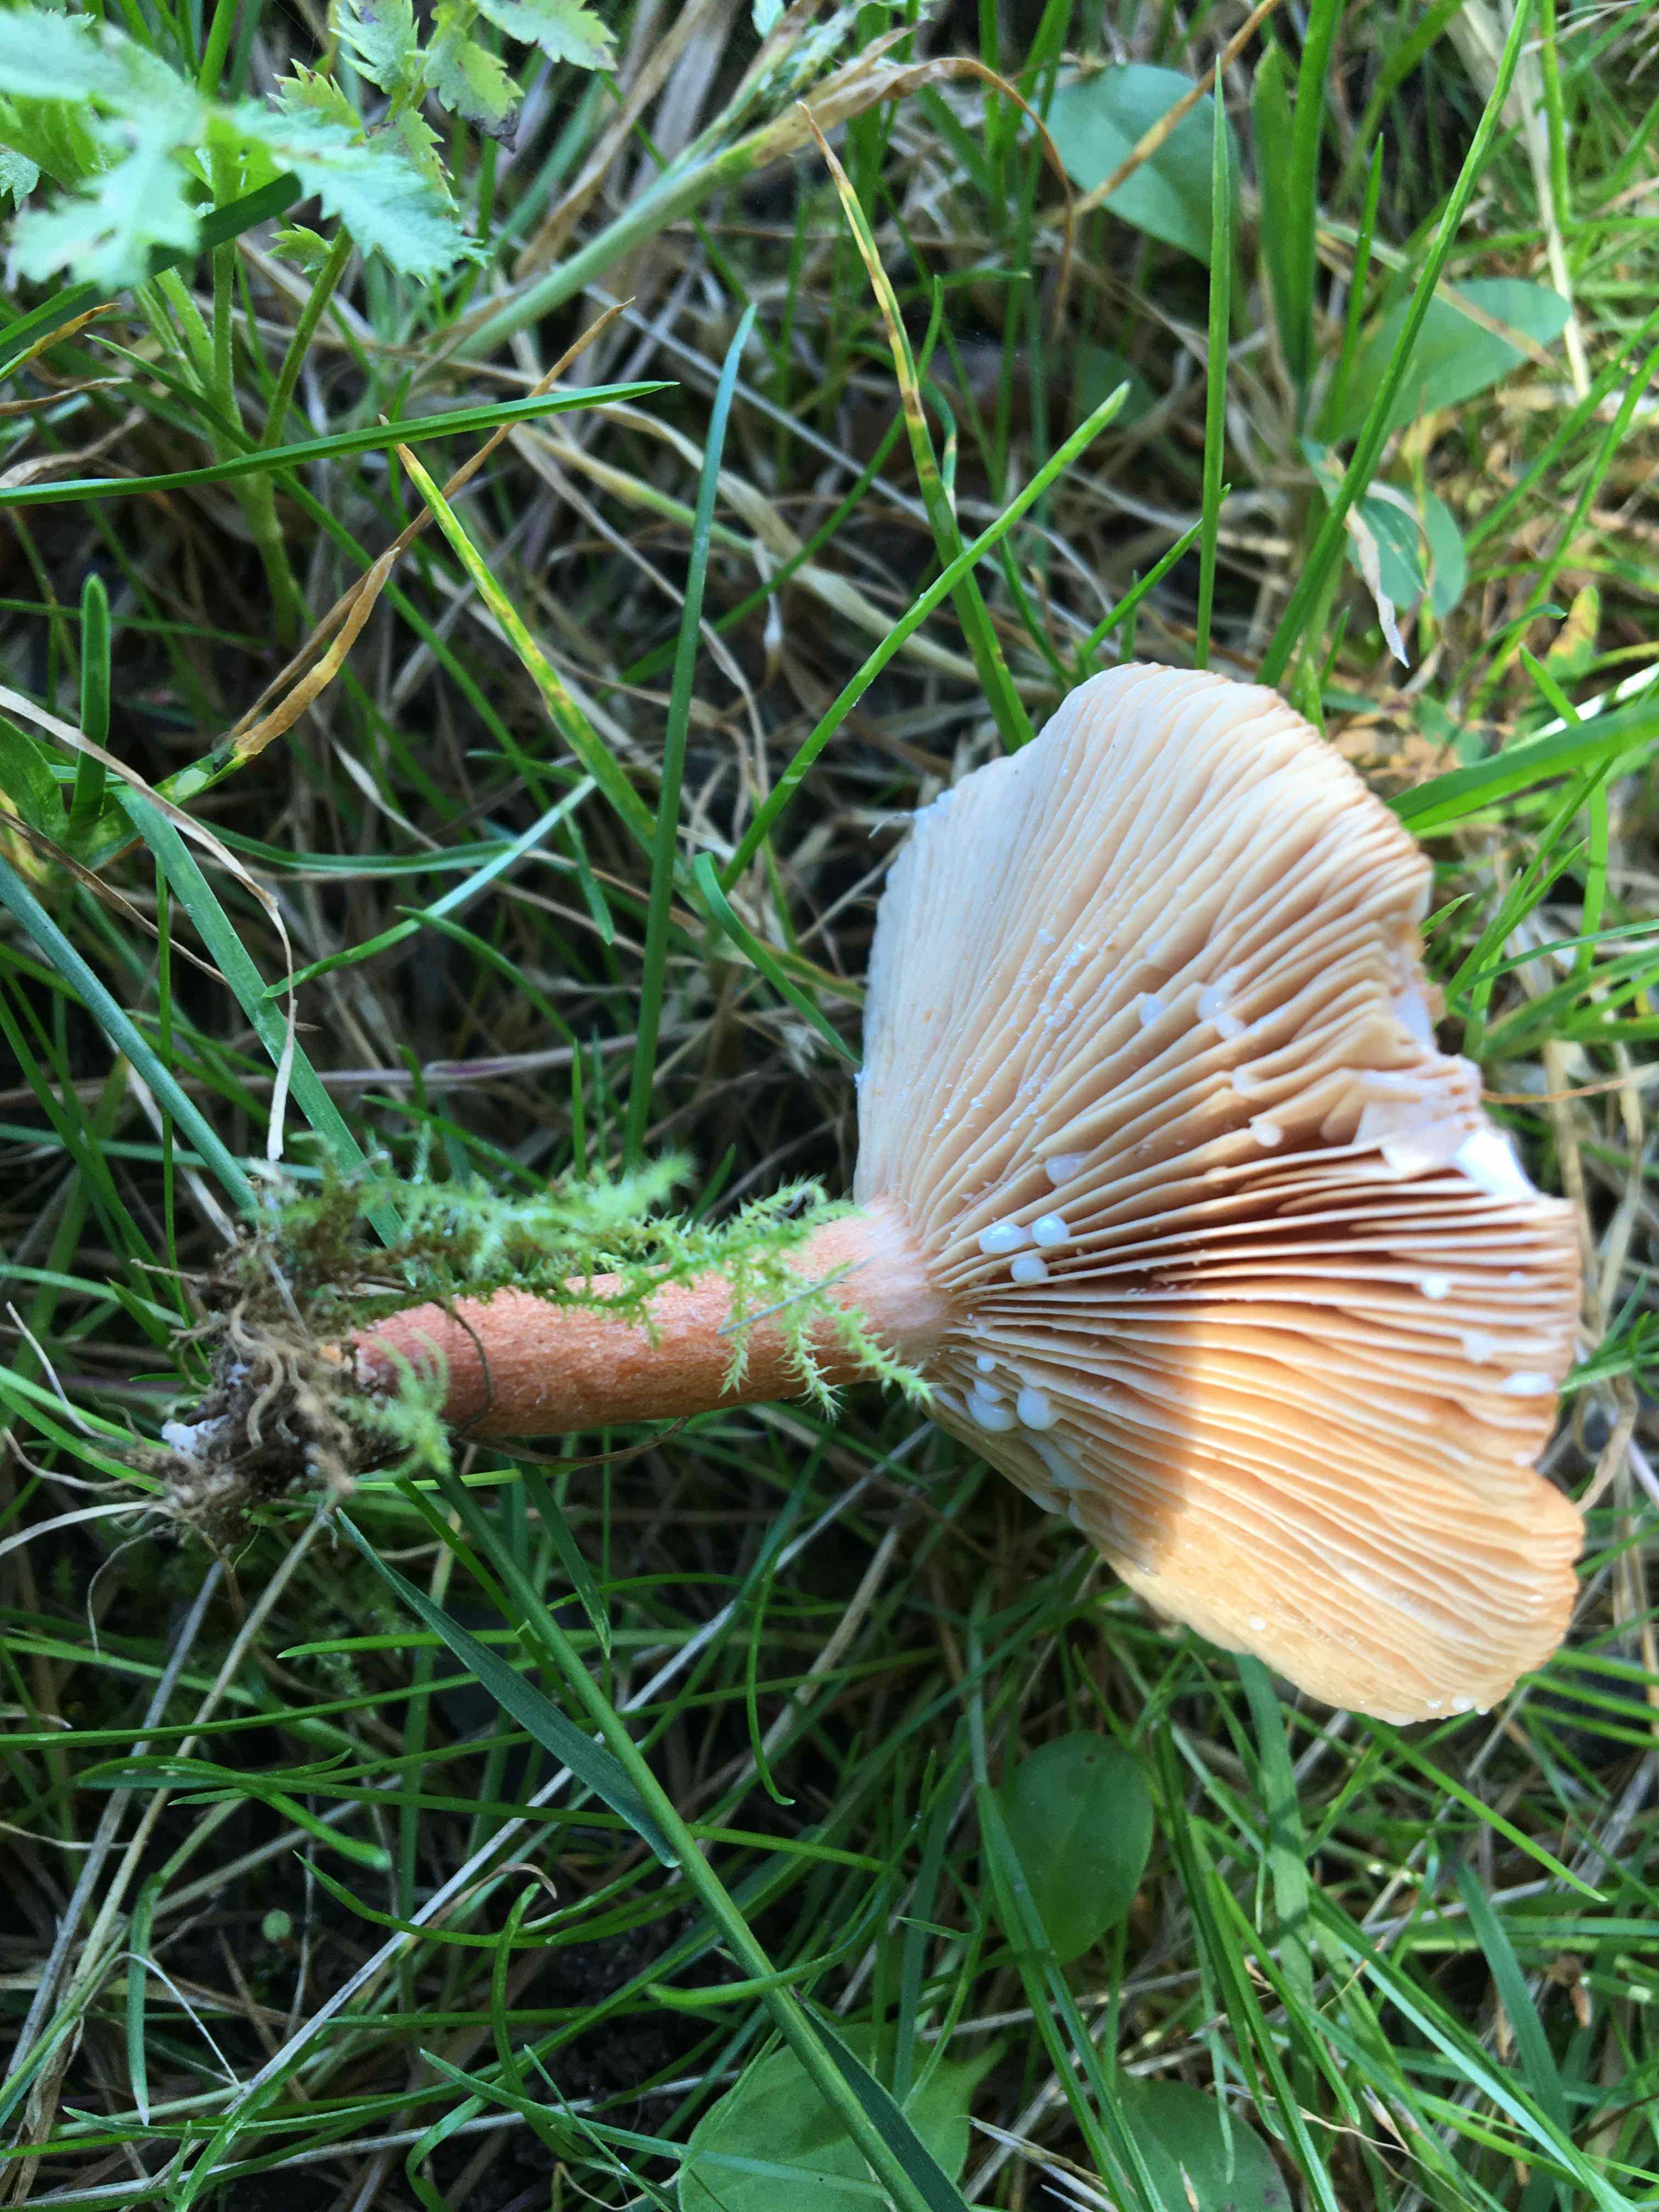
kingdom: Fungi
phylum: Basidiomycota
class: Agaricomycetes
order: Russulales
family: Russulaceae
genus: Lactarius
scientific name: Lactarius
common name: mælkehat
